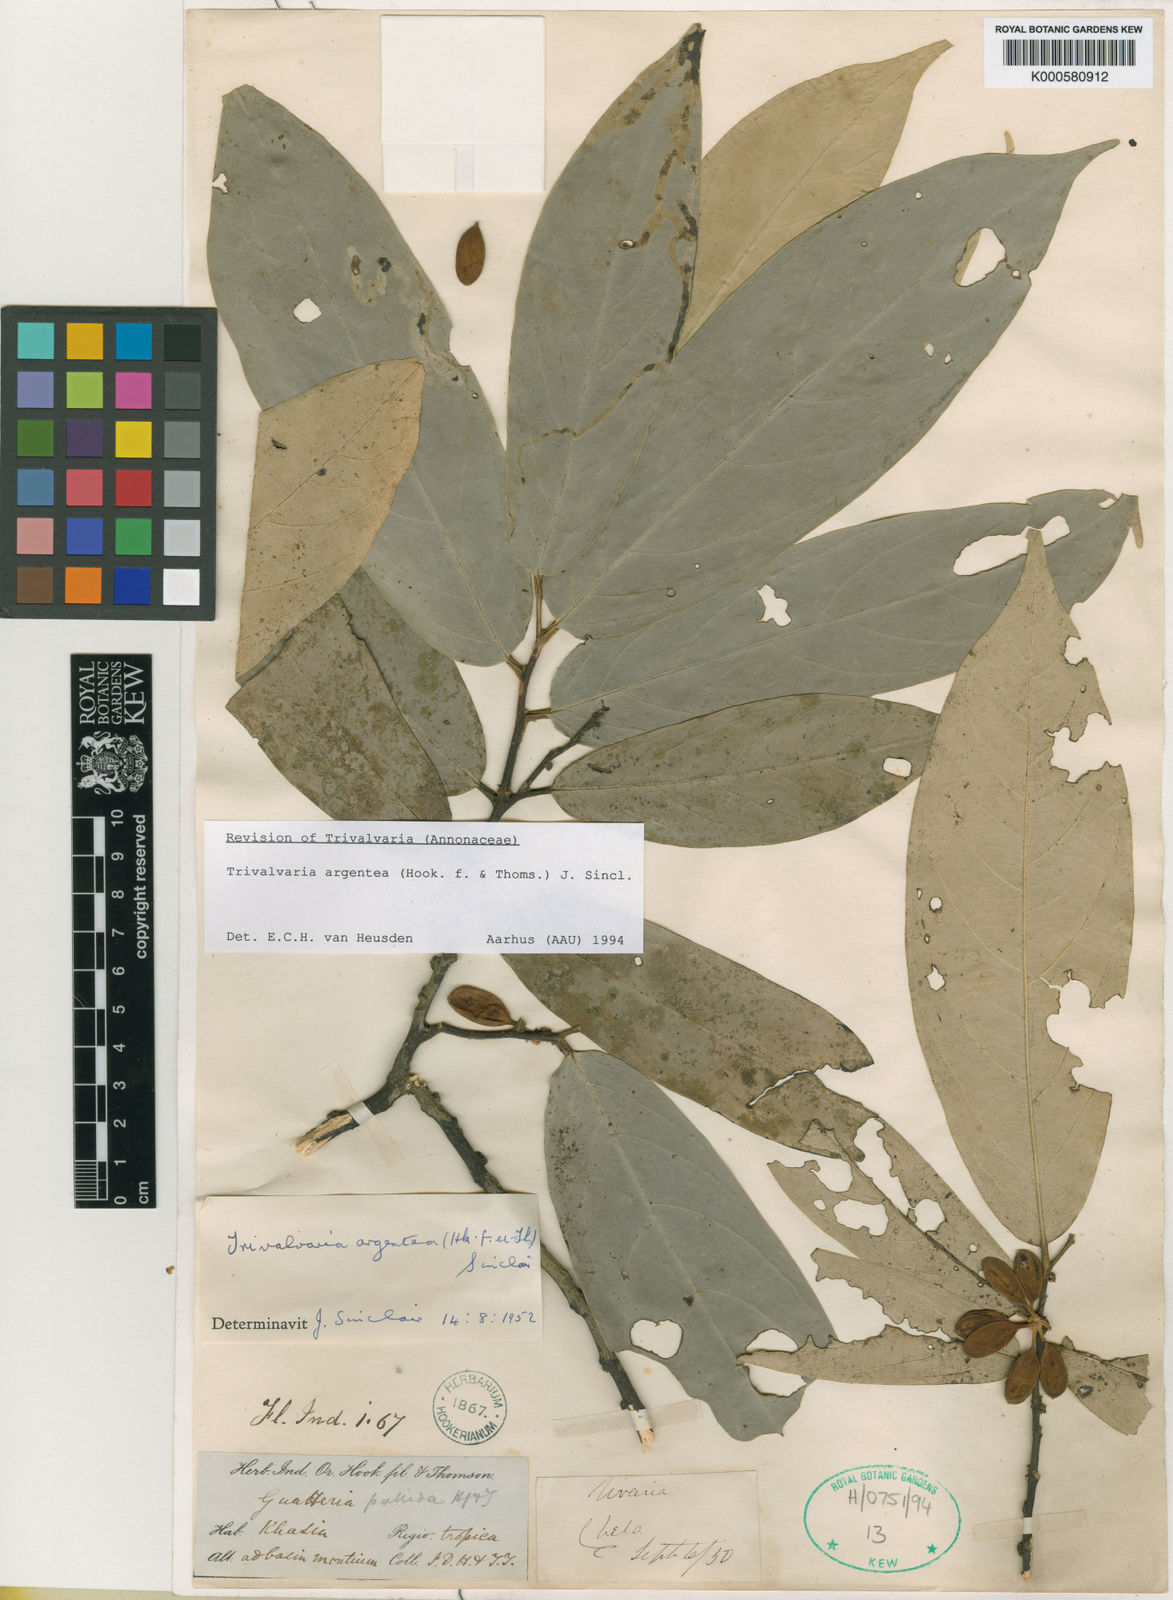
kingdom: Plantae
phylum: Tracheophyta
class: Magnoliopsida
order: Magnoliales
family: Annonaceae
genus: Trivalvaria
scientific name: Trivalvaria argentea
